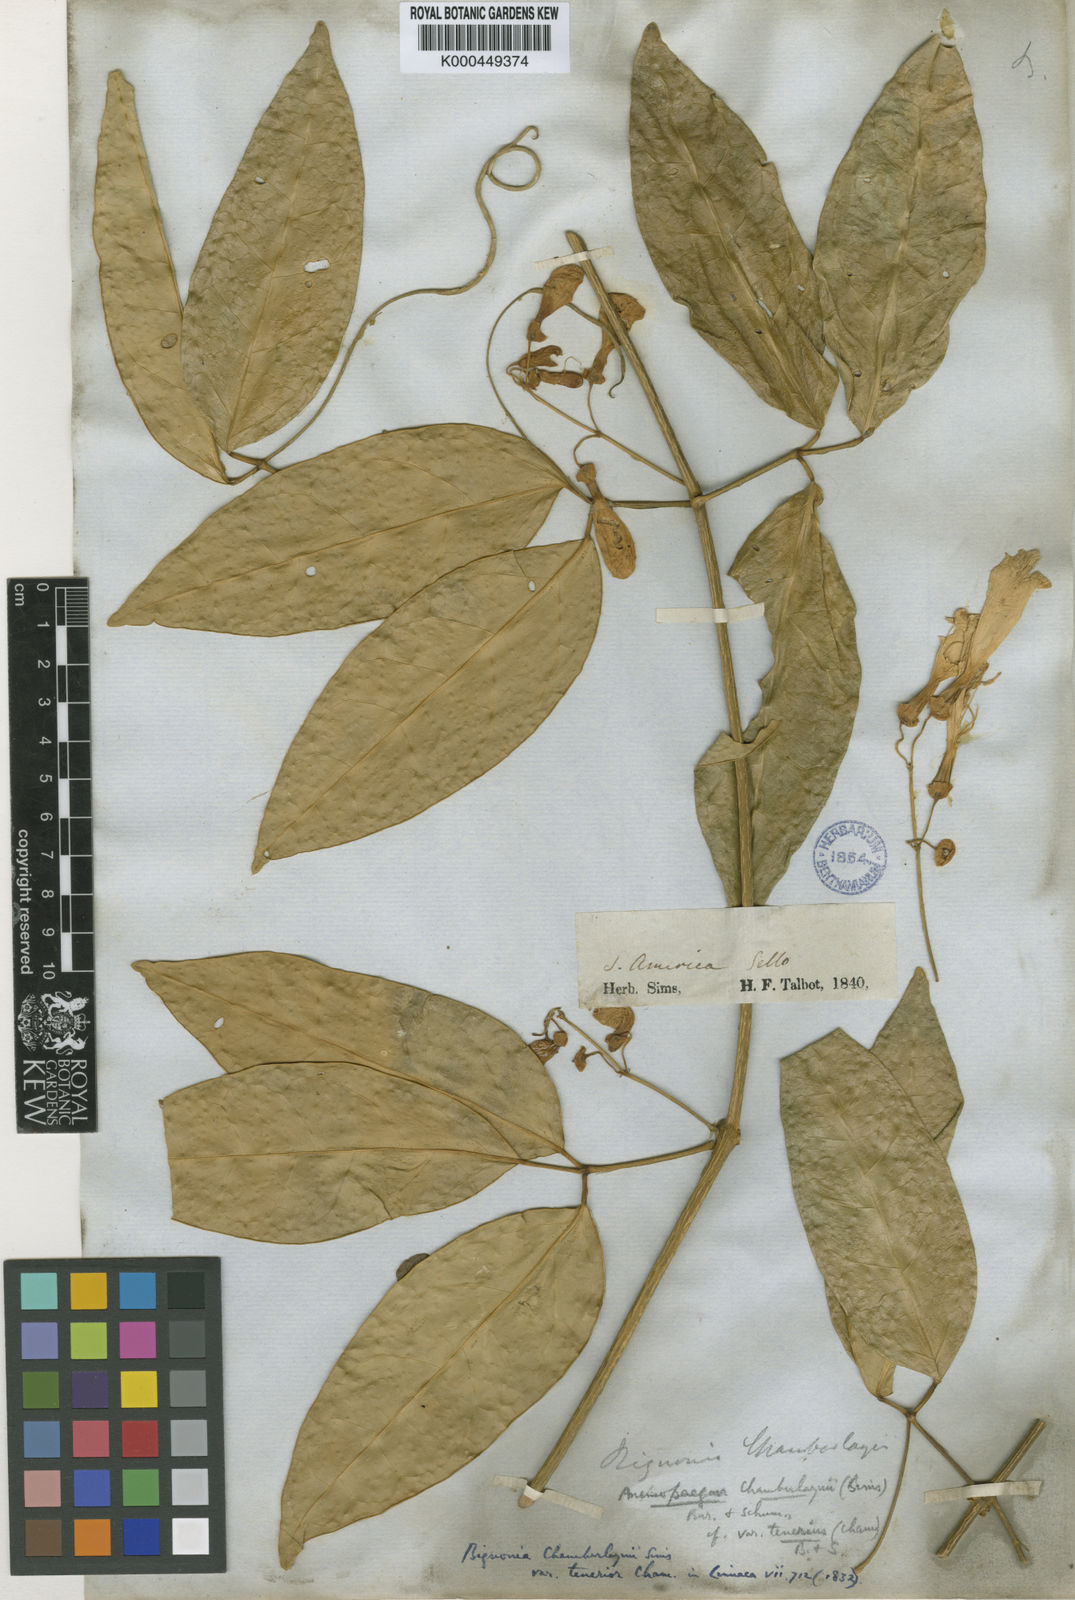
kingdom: Plantae
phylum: Tracheophyta
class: Magnoliopsida
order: Lamiales
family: Bignoniaceae
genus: Anemopaegma
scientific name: Anemopaegma chamberlaynii
